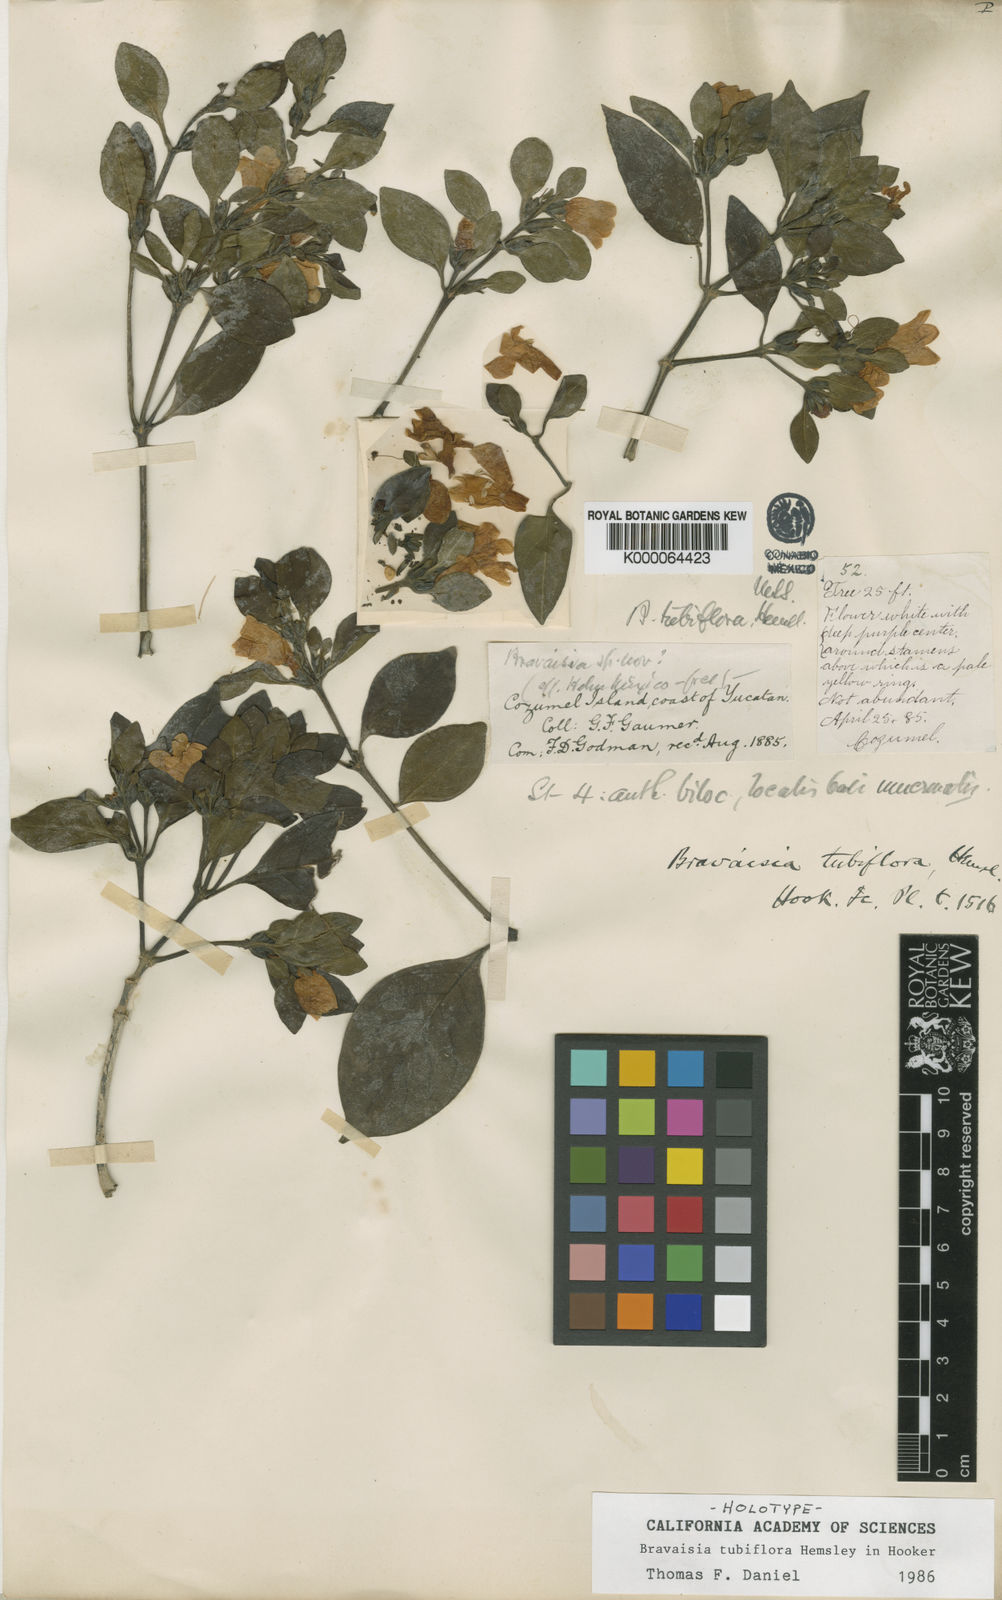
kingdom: Plantae
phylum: Tracheophyta
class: Magnoliopsida
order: Lamiales
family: Acanthaceae
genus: Bravaisia
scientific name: Bravaisia berlandieriana
